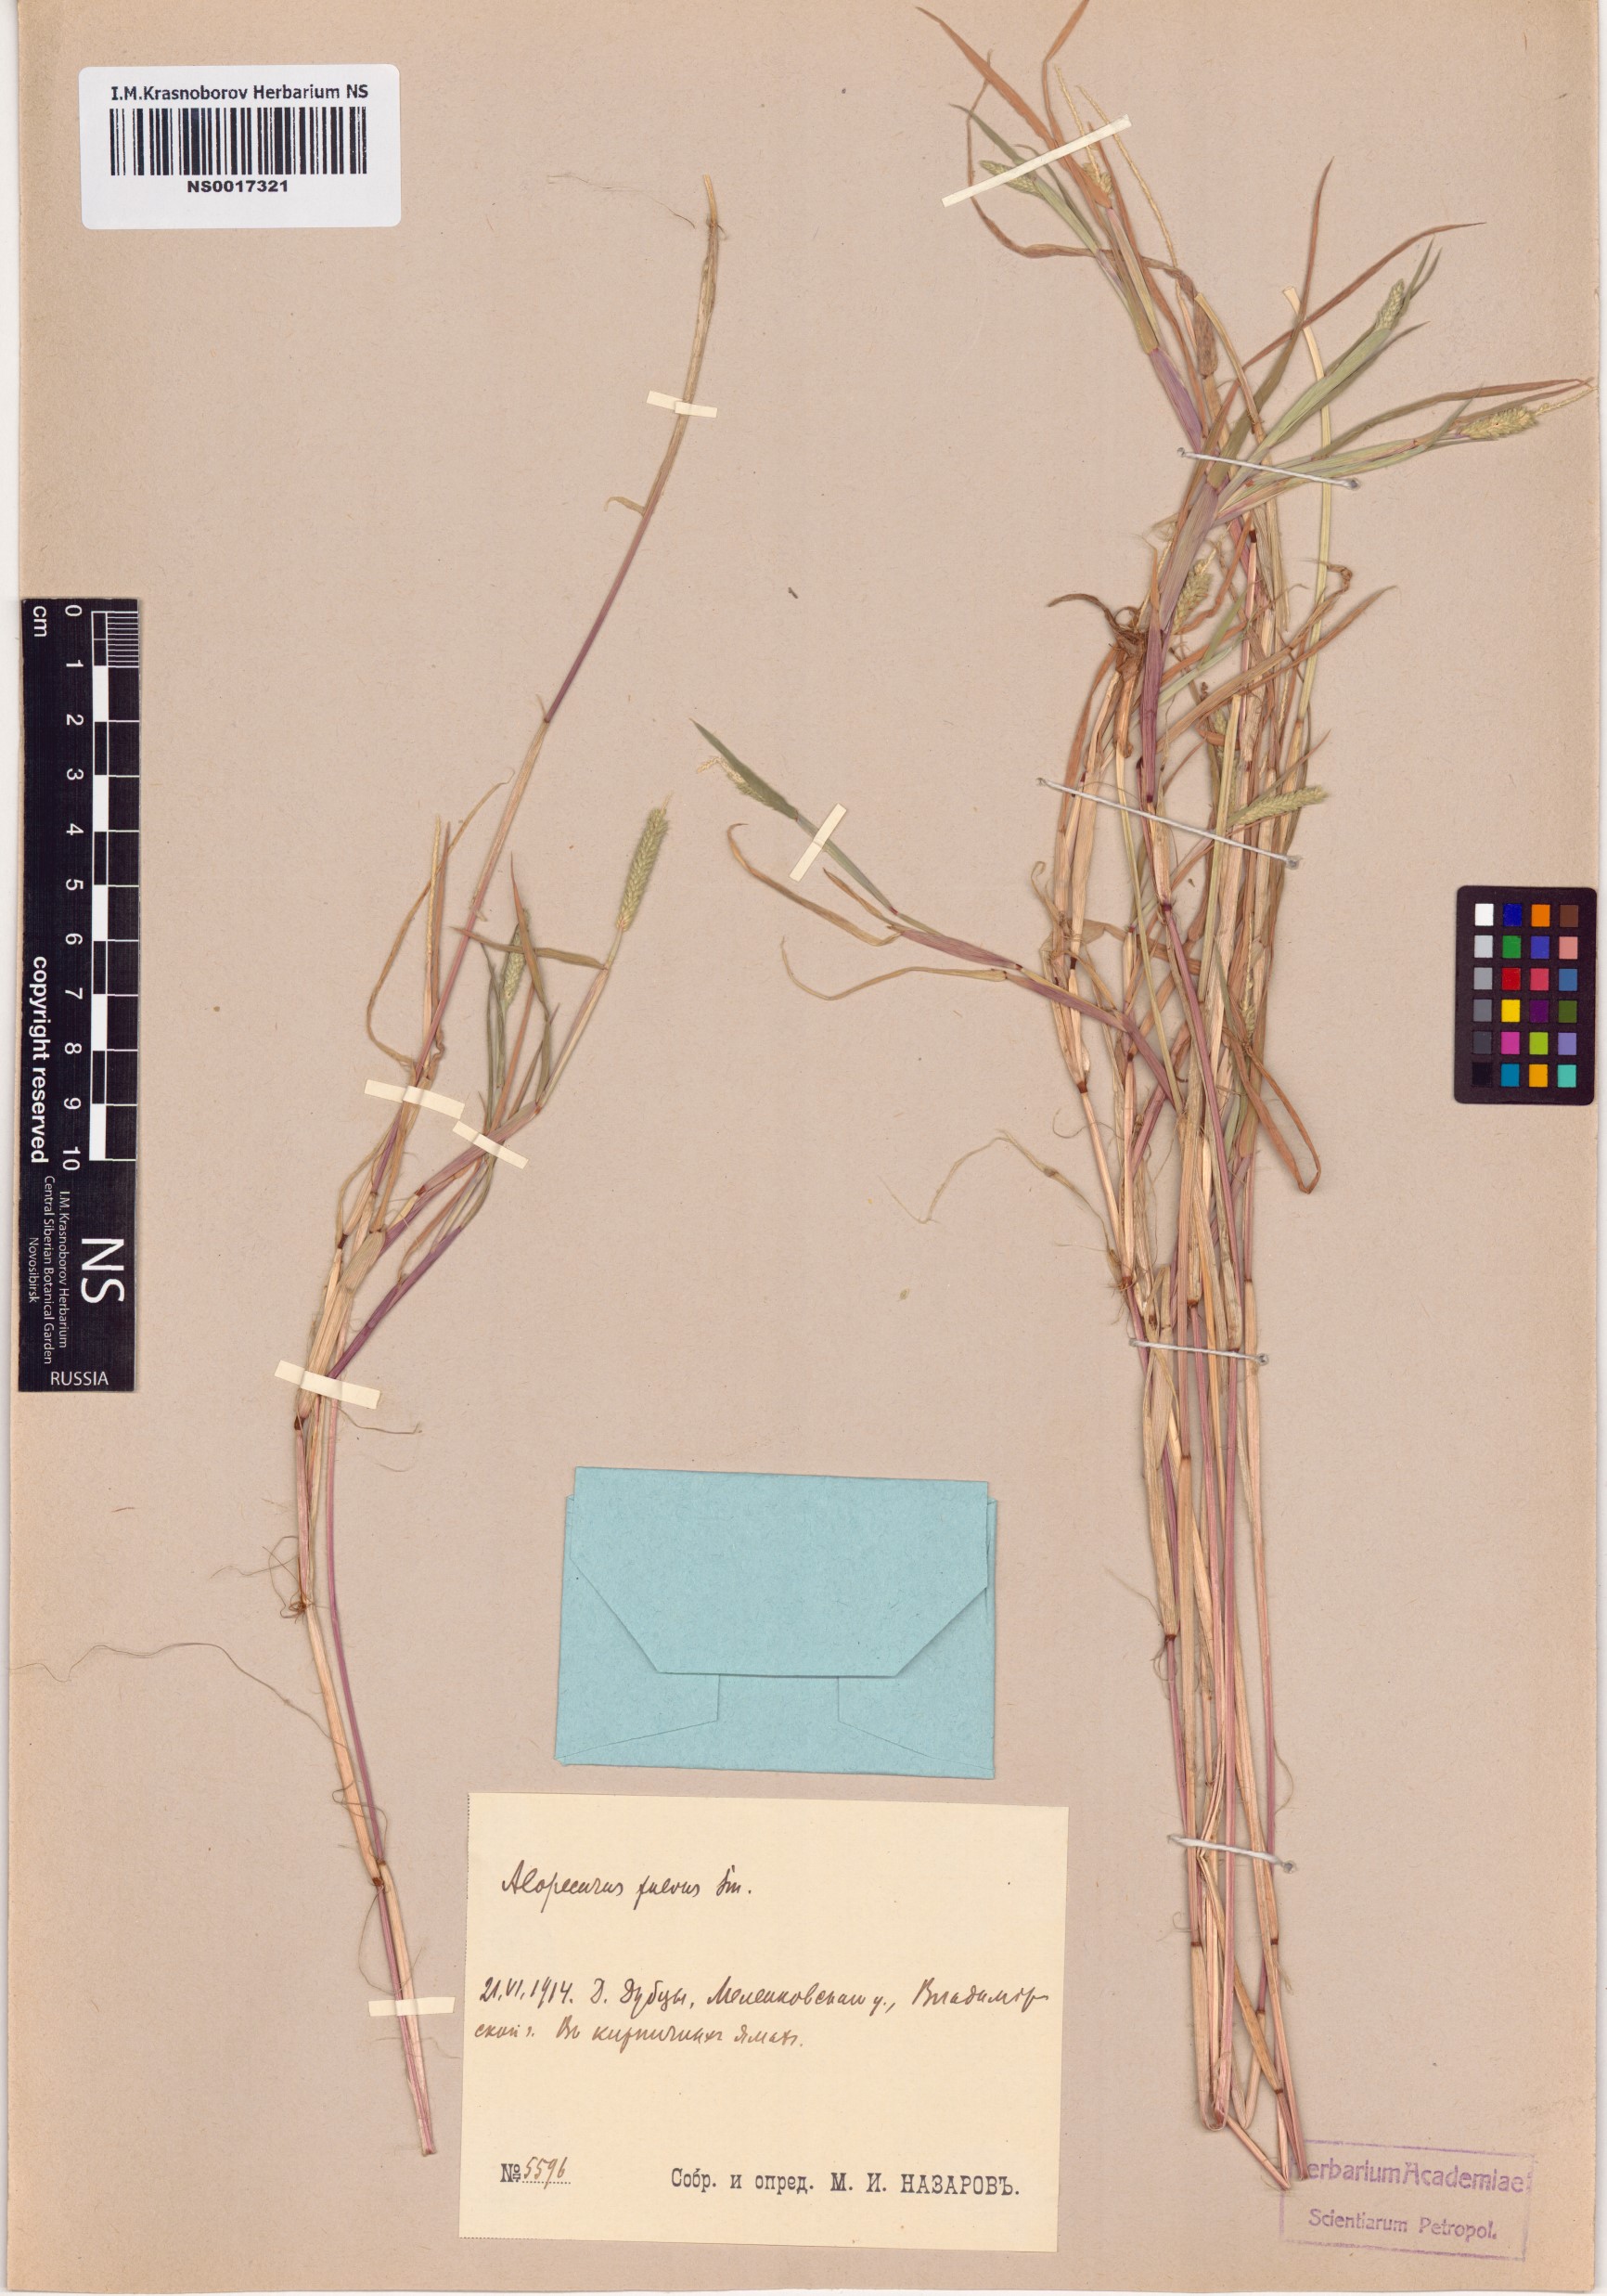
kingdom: Plantae
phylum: Tracheophyta
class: Liliopsida
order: Poales
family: Poaceae
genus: Alopecurus
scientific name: Alopecurus aequalis
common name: Orange foxtail
